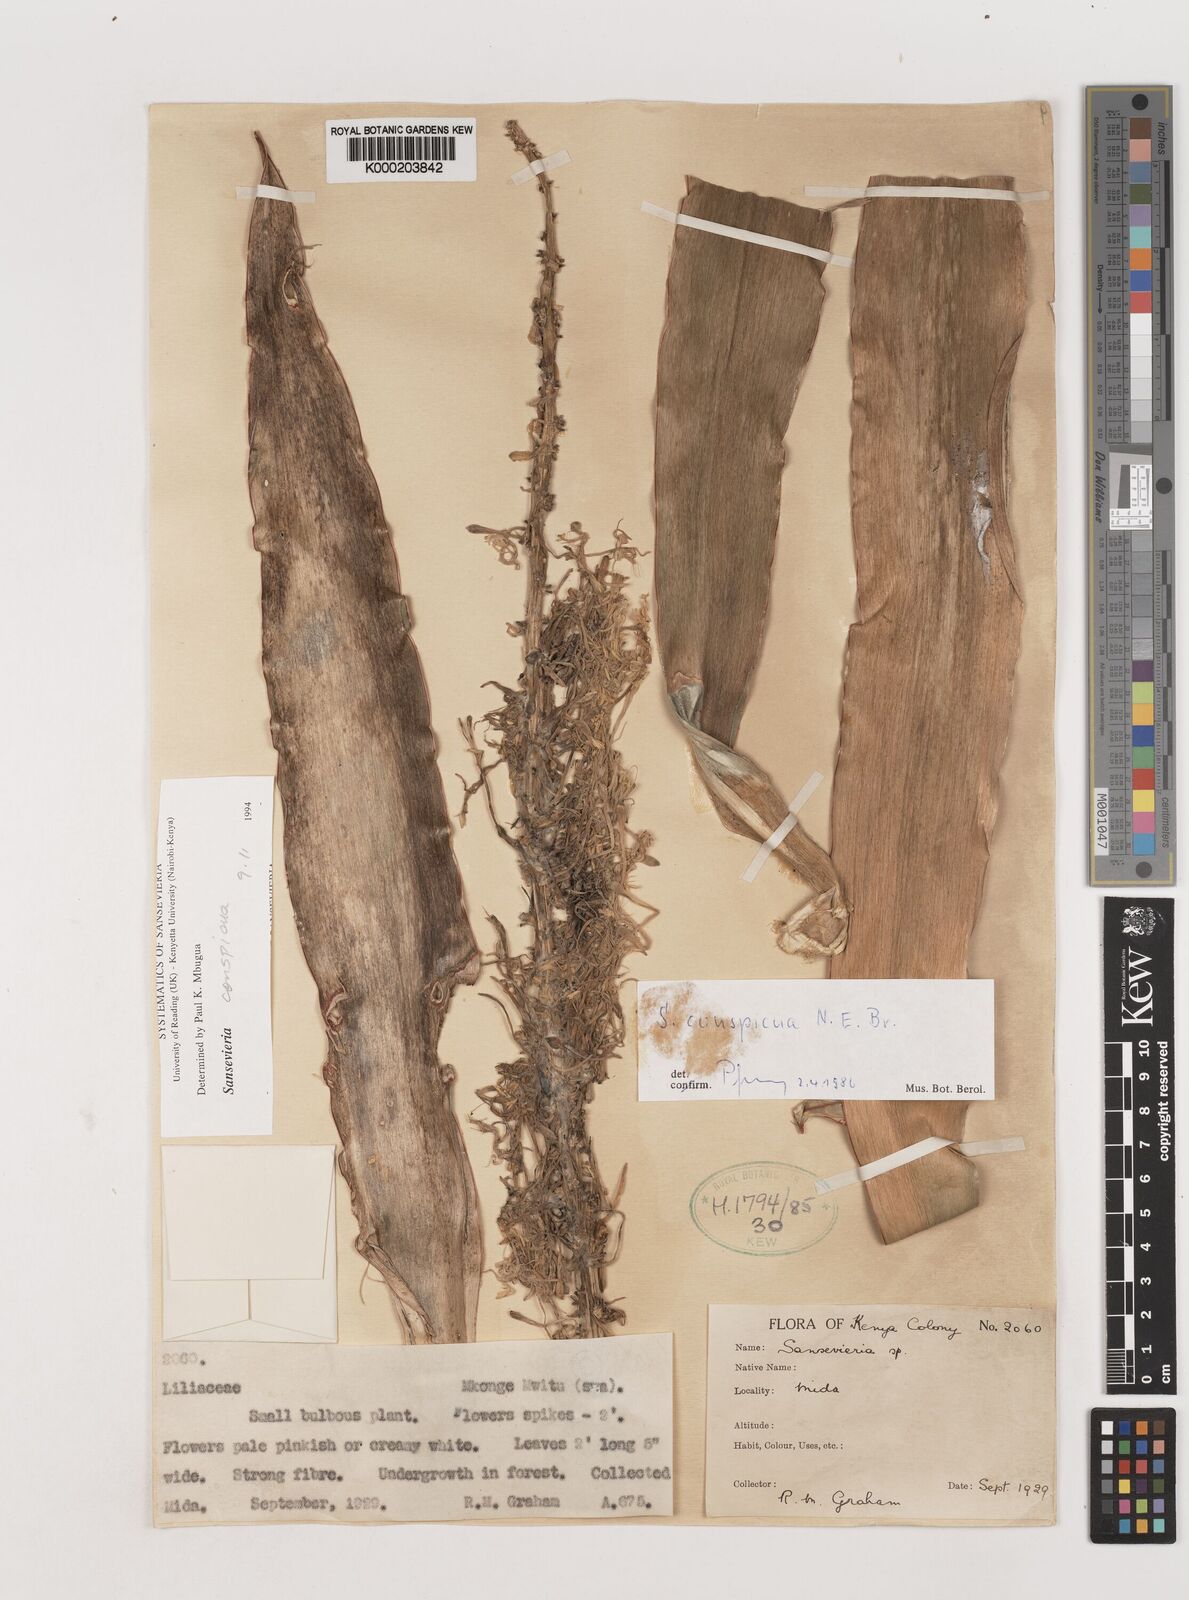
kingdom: Plantae
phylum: Tracheophyta
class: Liliopsida
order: Asparagales
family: Asparagaceae
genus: Dracaena
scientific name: Dracaena conspicua
